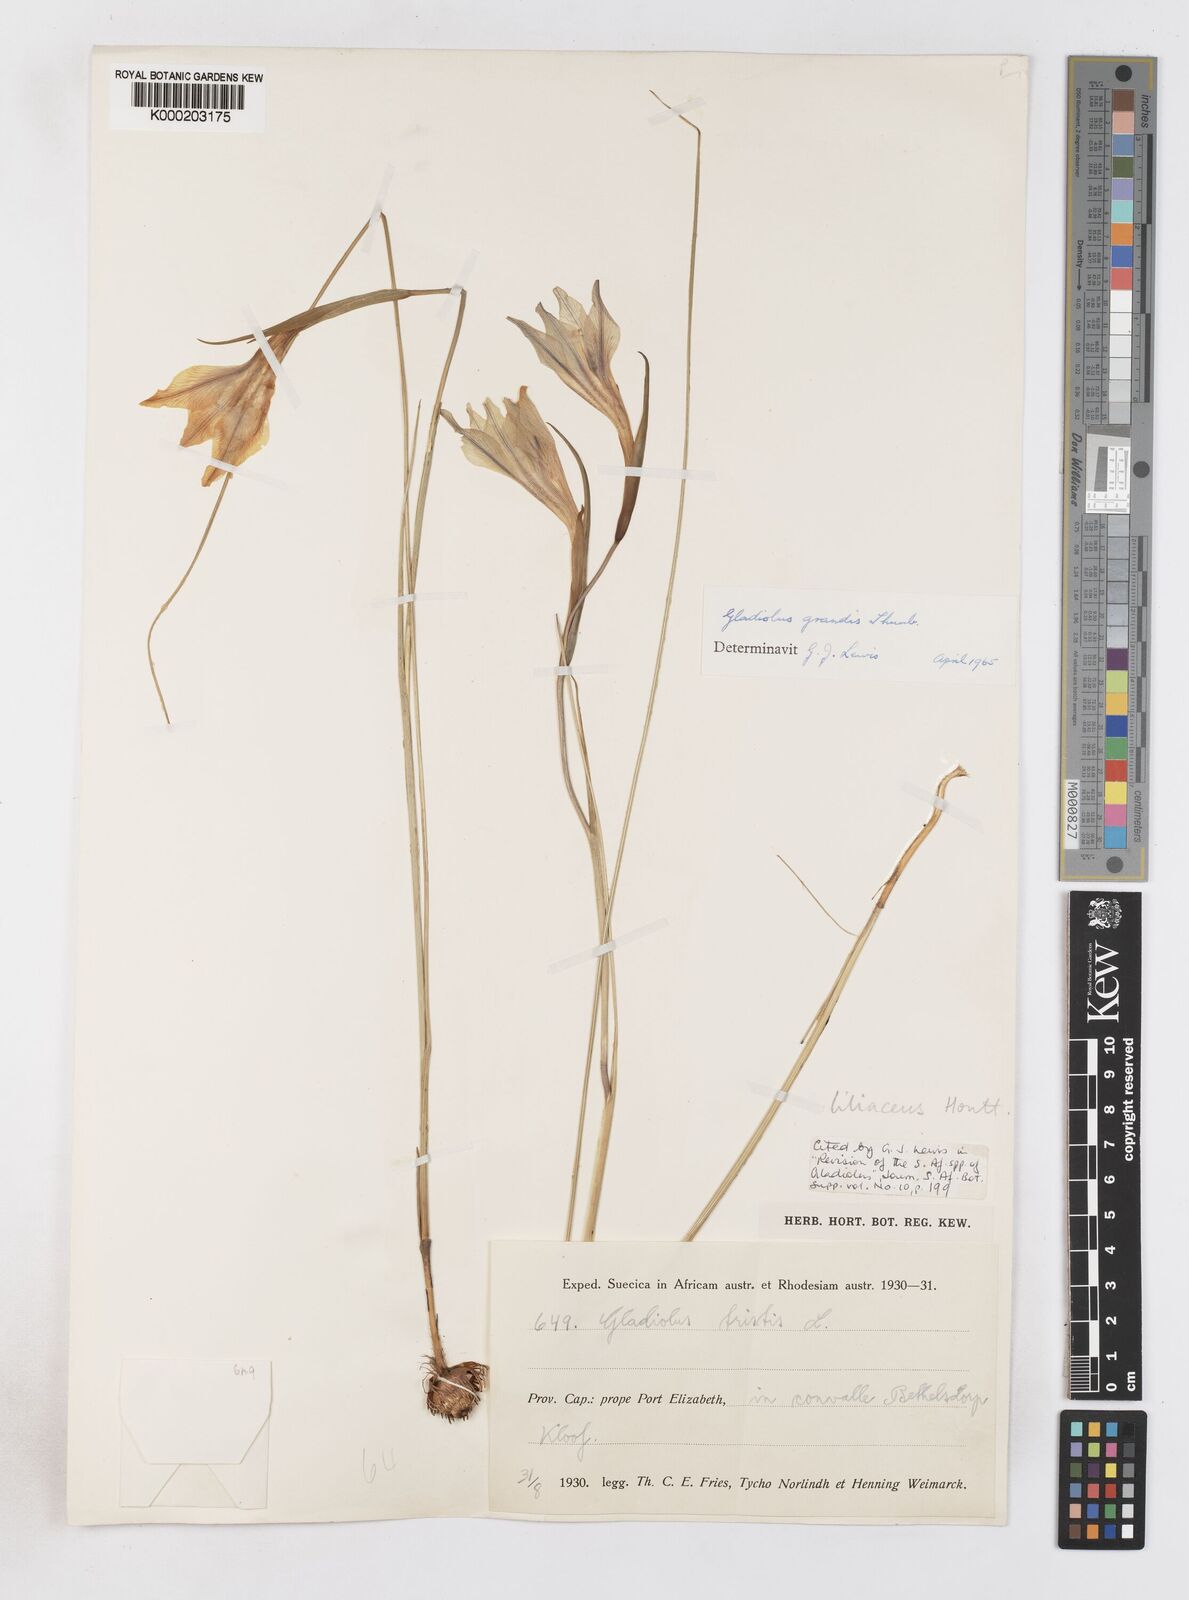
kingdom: Plantae
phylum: Tracheophyta
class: Liliopsida
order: Asparagales
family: Iridaceae
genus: Gladiolus
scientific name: Gladiolus liliaceus
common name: Large brown afrikaner
